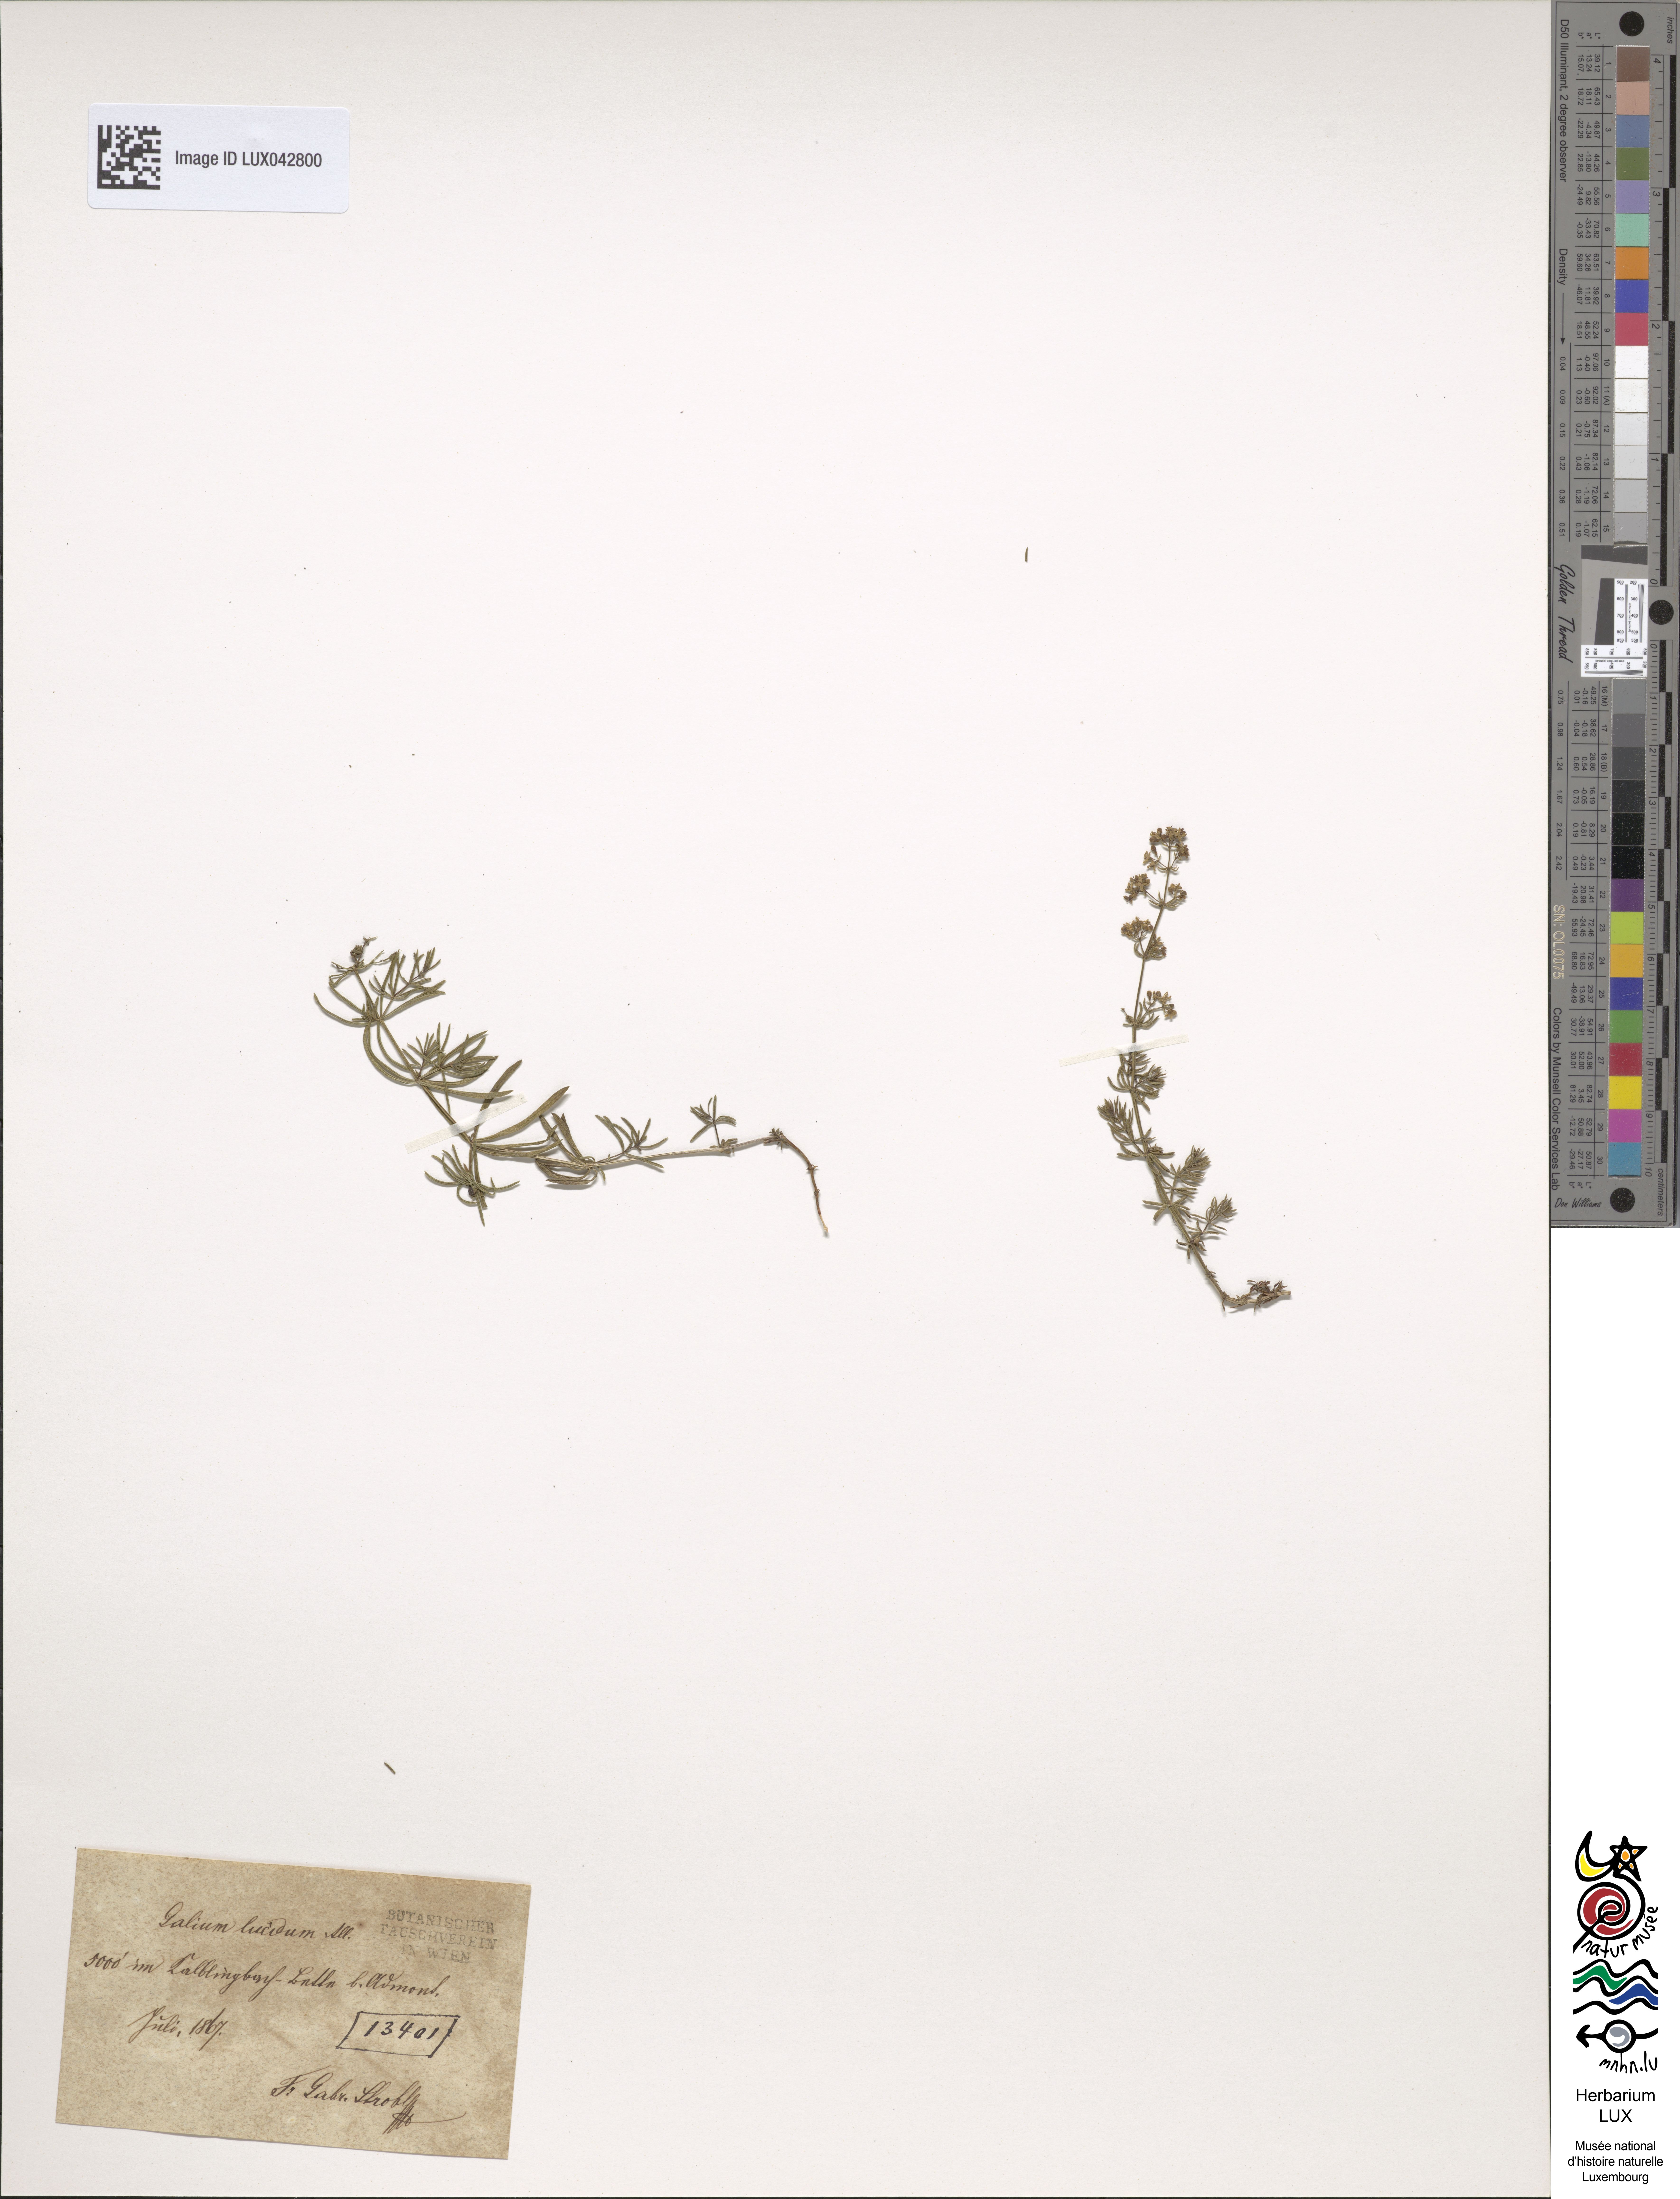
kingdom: Plantae
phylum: Tracheophyta
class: Magnoliopsida
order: Gentianales
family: Rubiaceae
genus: Galium
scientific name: Galium lucidum
